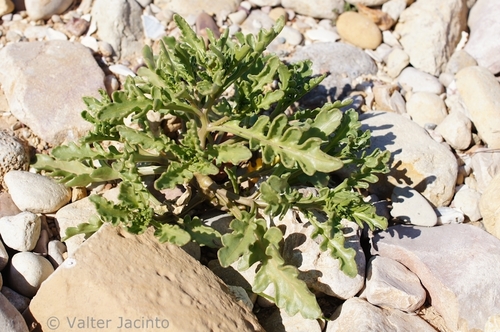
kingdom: Plantae
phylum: Tracheophyta
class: Magnoliopsida
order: Brassicales
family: Brassicaceae
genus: Cakile
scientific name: Cakile maritima
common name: Sea rocket
